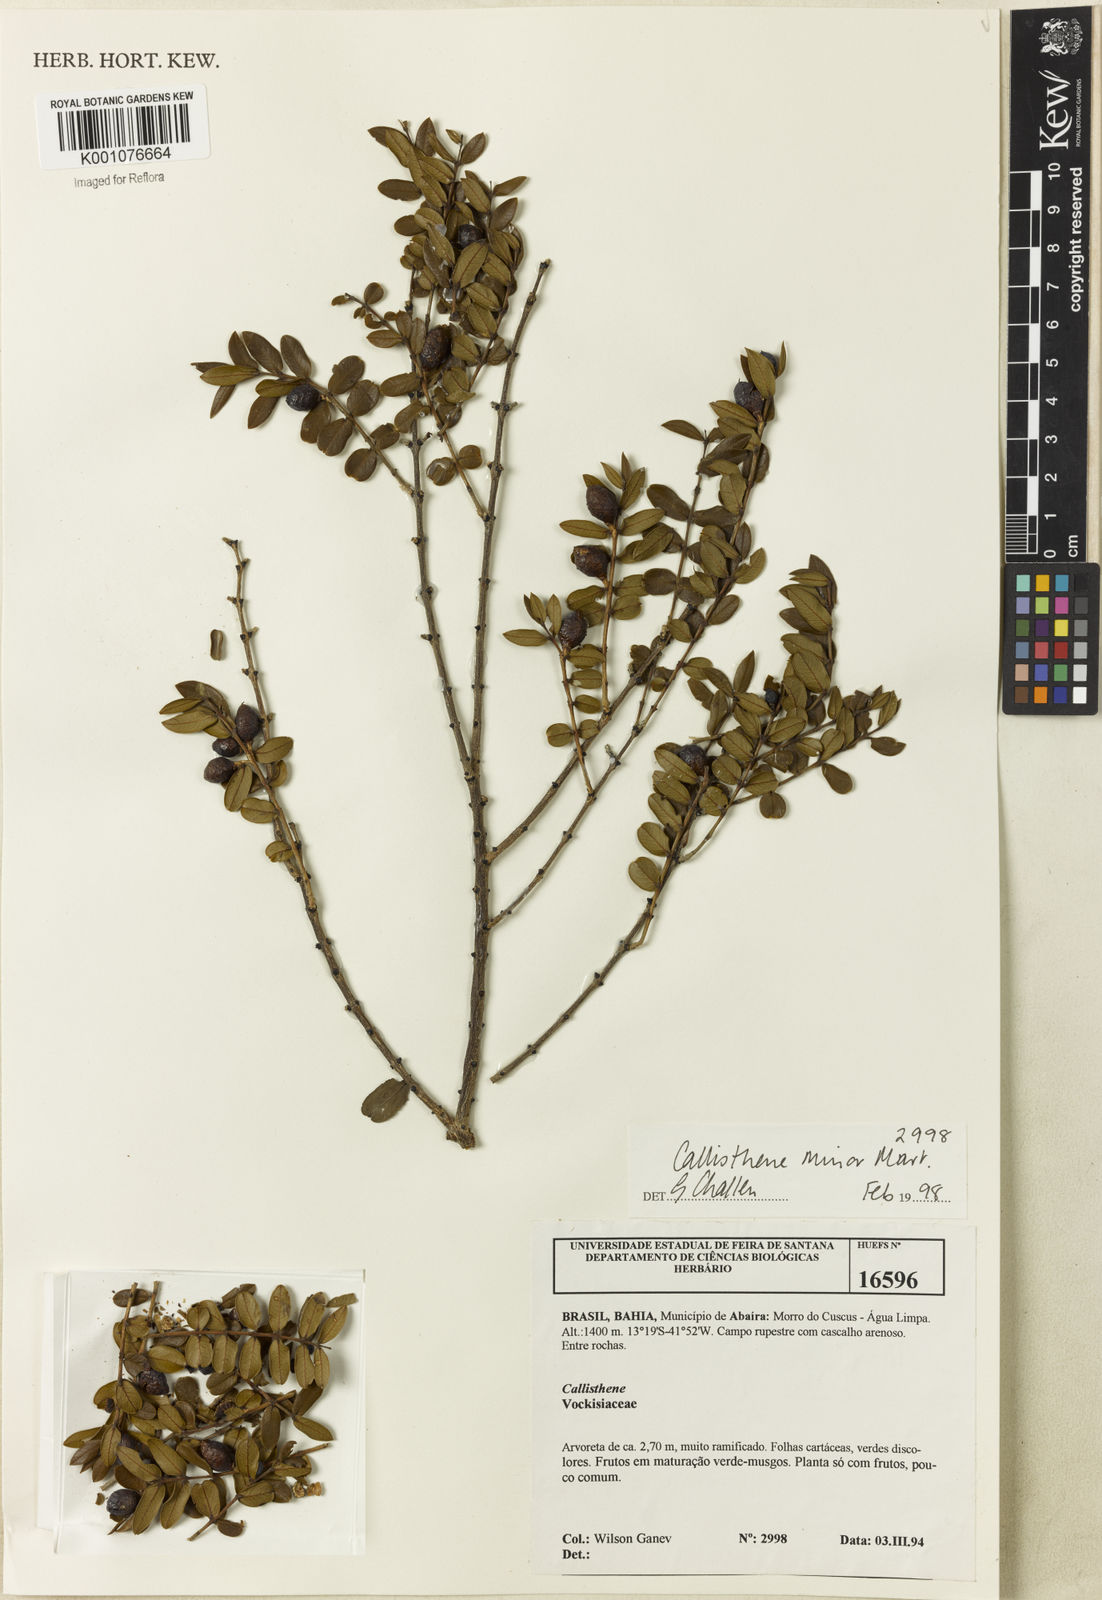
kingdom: Plantae
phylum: Tracheophyta
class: Magnoliopsida
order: Myrtales
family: Vochysiaceae
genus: Callisthene
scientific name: Callisthene minor
